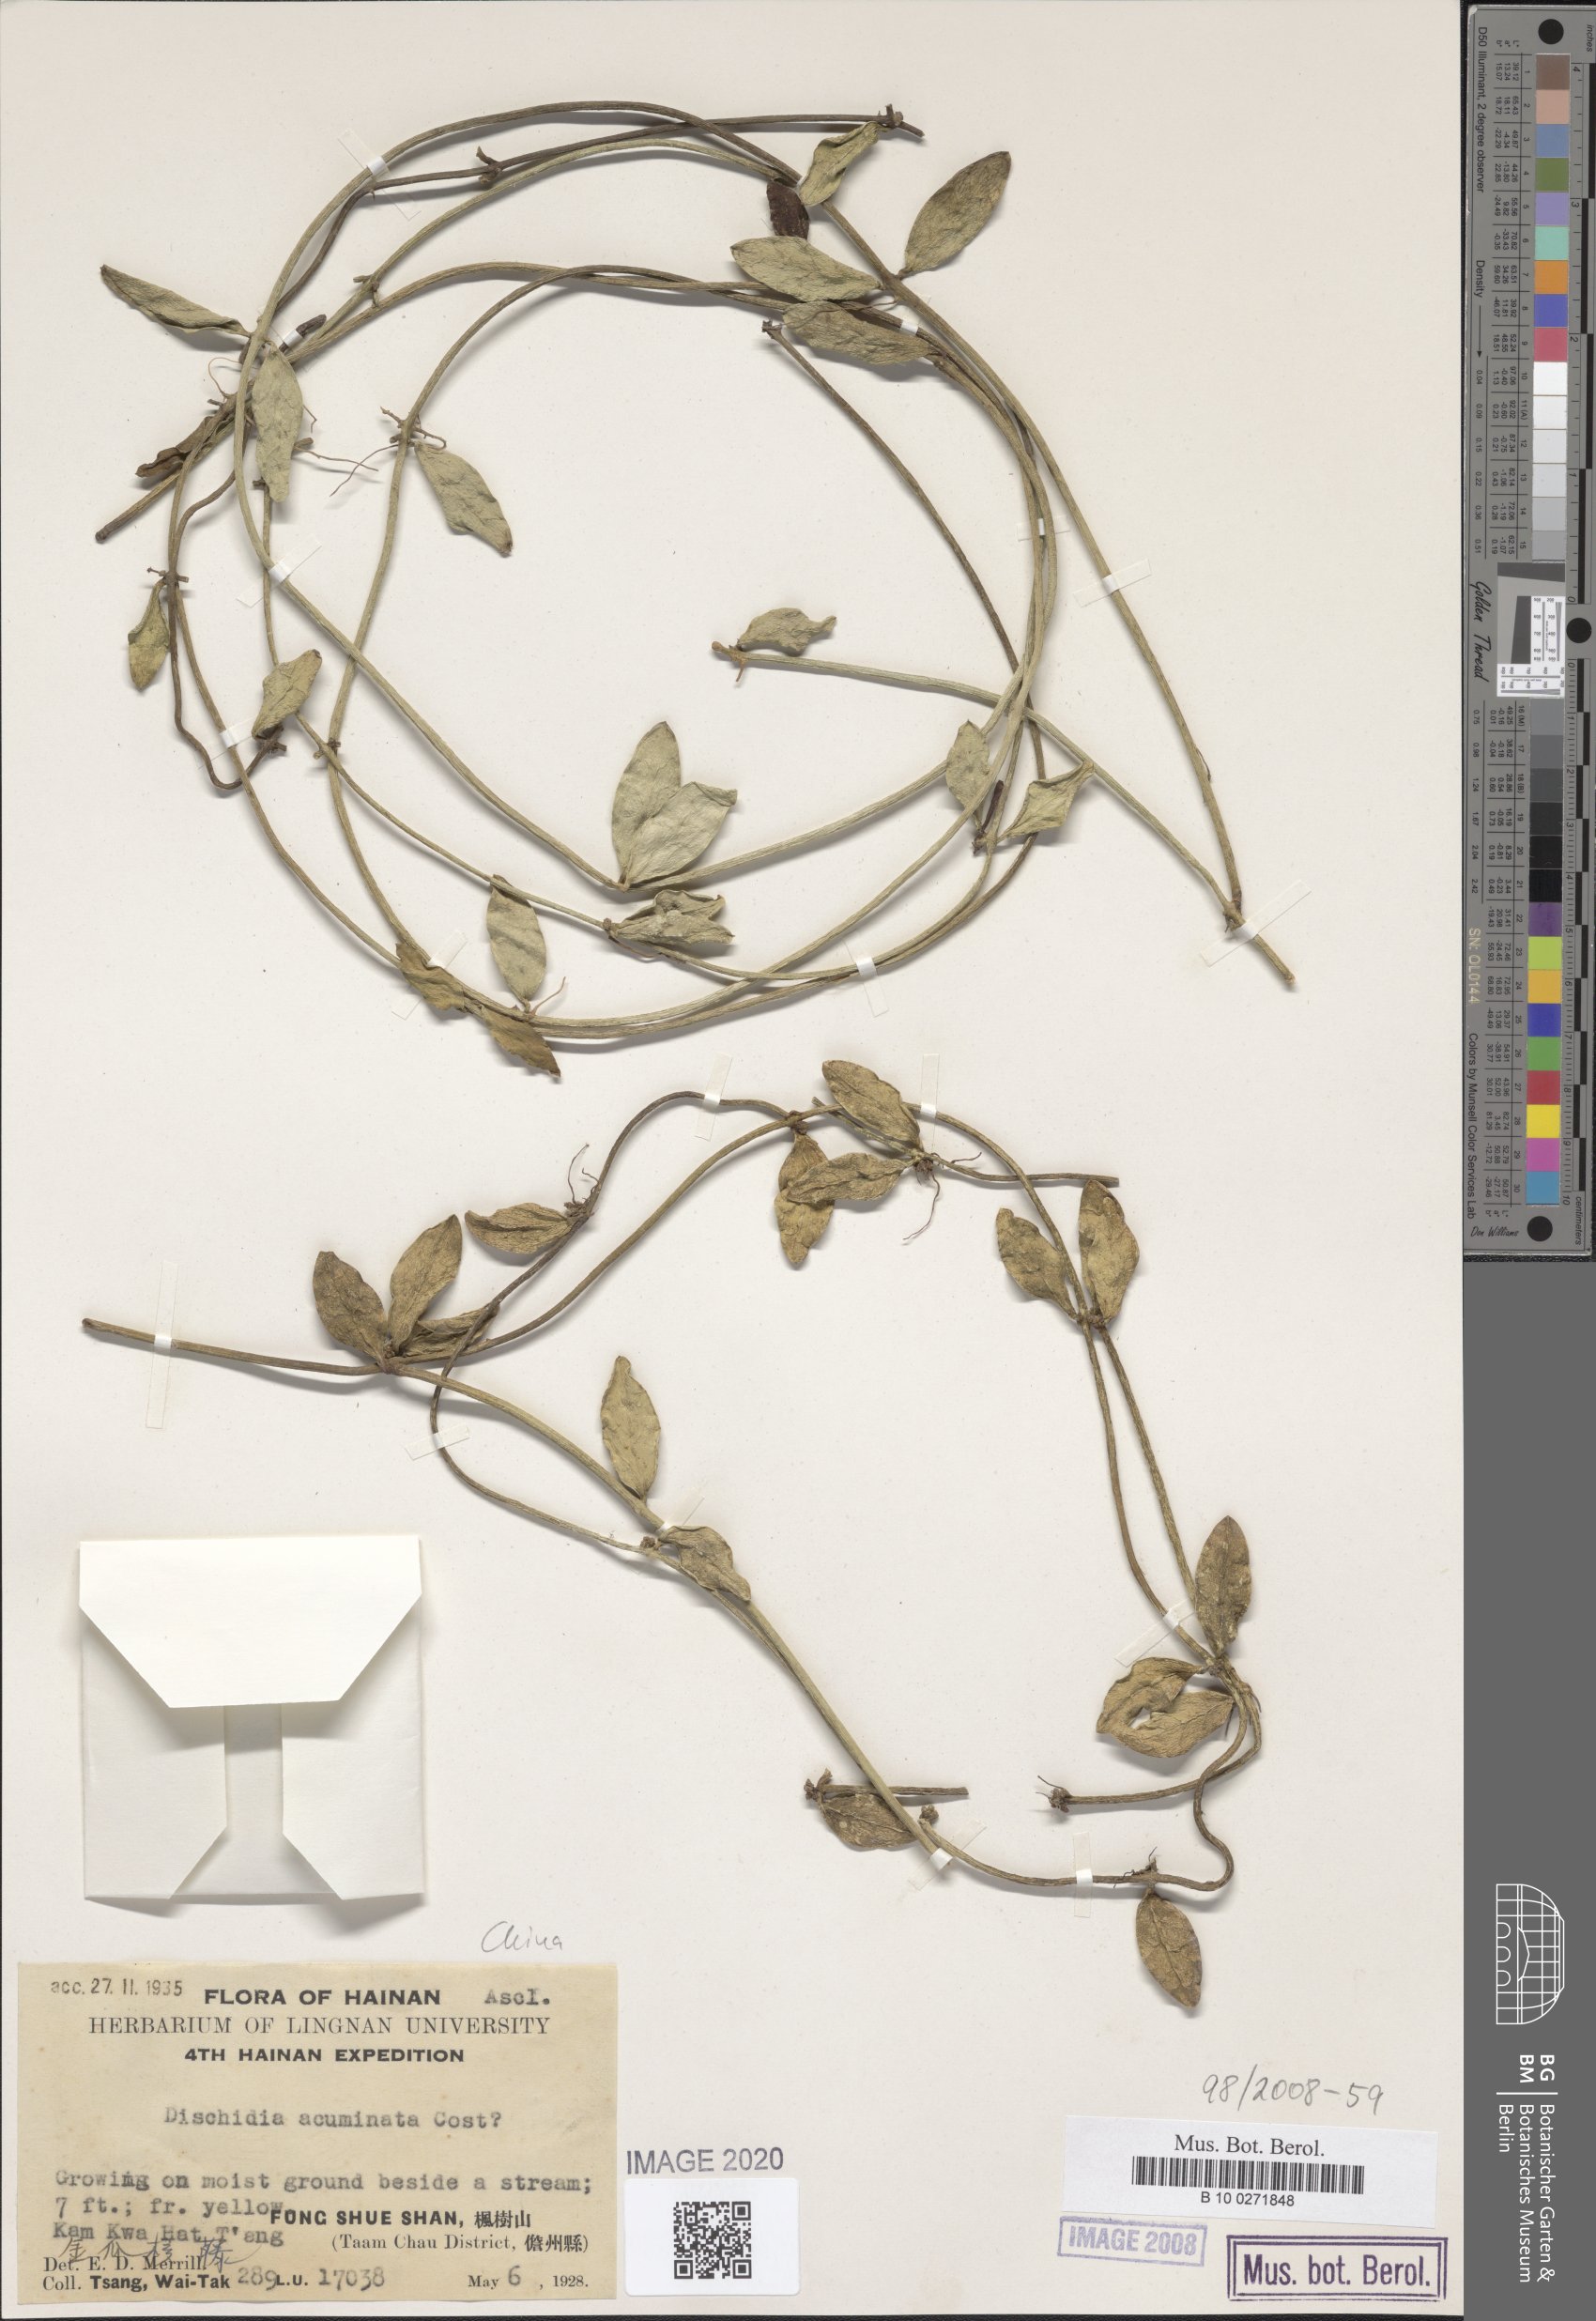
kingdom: Plantae
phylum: Tracheophyta
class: Magnoliopsida
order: Gentianales
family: Apocynaceae
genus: Dischidia
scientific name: Dischidia acuminata
